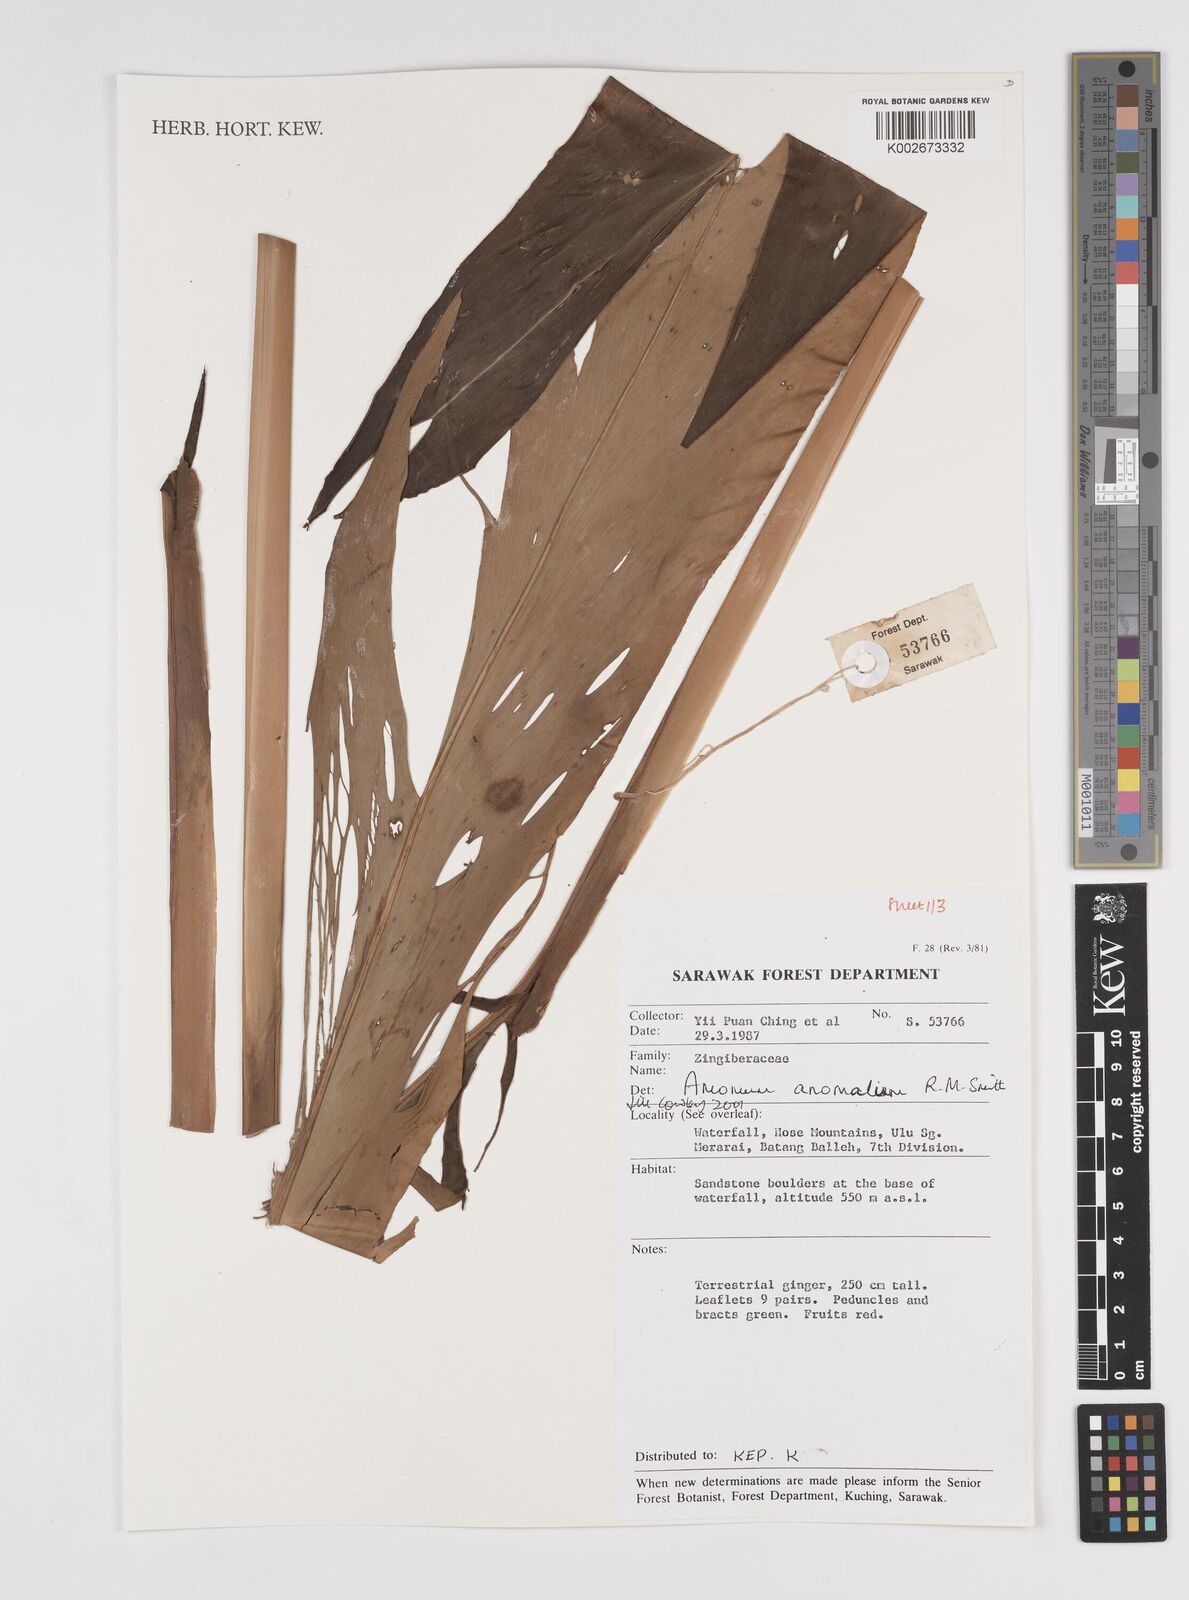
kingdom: Plantae
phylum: Tracheophyta
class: Liliopsida
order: Zingiberales
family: Zingiberaceae
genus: Sulettaria
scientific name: Sulettaria anomala
